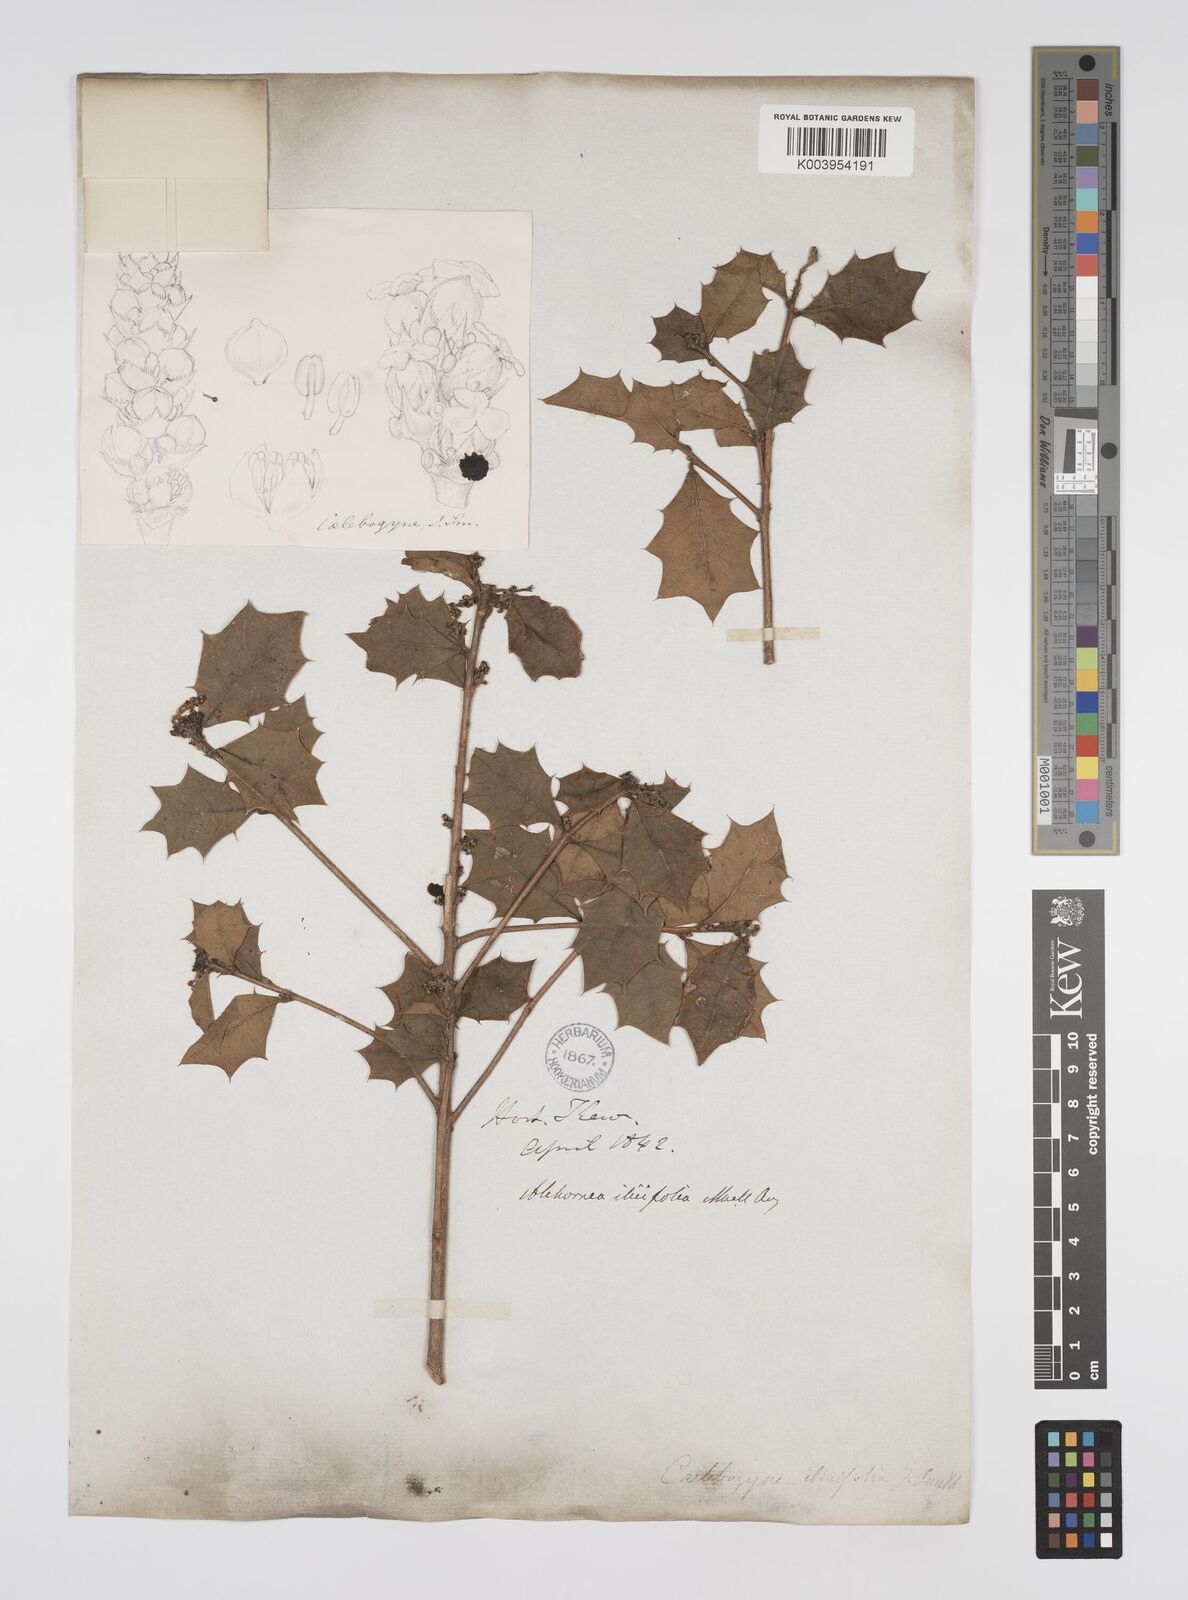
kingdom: Plantae
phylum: Tracheophyta
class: Magnoliopsida
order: Malpighiales
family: Euphorbiaceae
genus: Alchornea
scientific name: Alchornea ilicifolia
